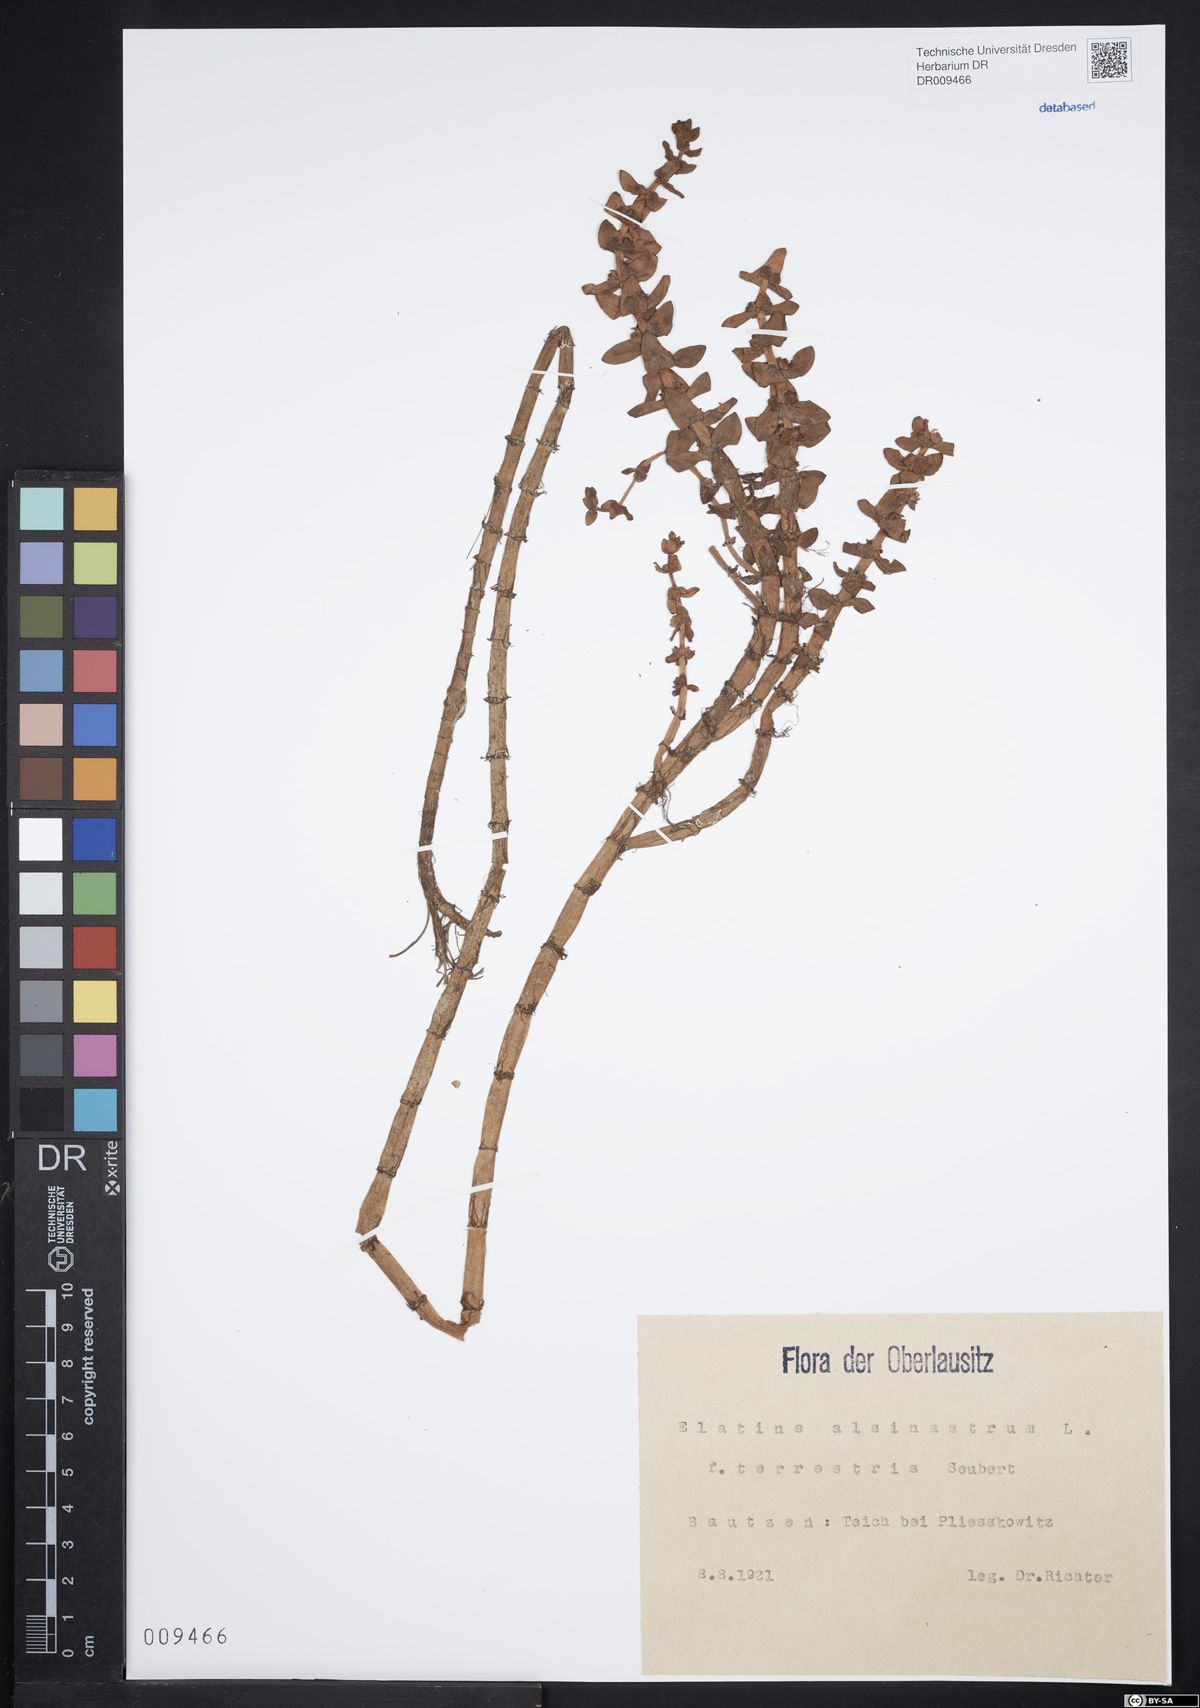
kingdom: Plantae
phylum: Tracheophyta
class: Magnoliopsida
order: Malpighiales
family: Elatinaceae
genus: Elatine
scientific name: Elatine alsinastrum
